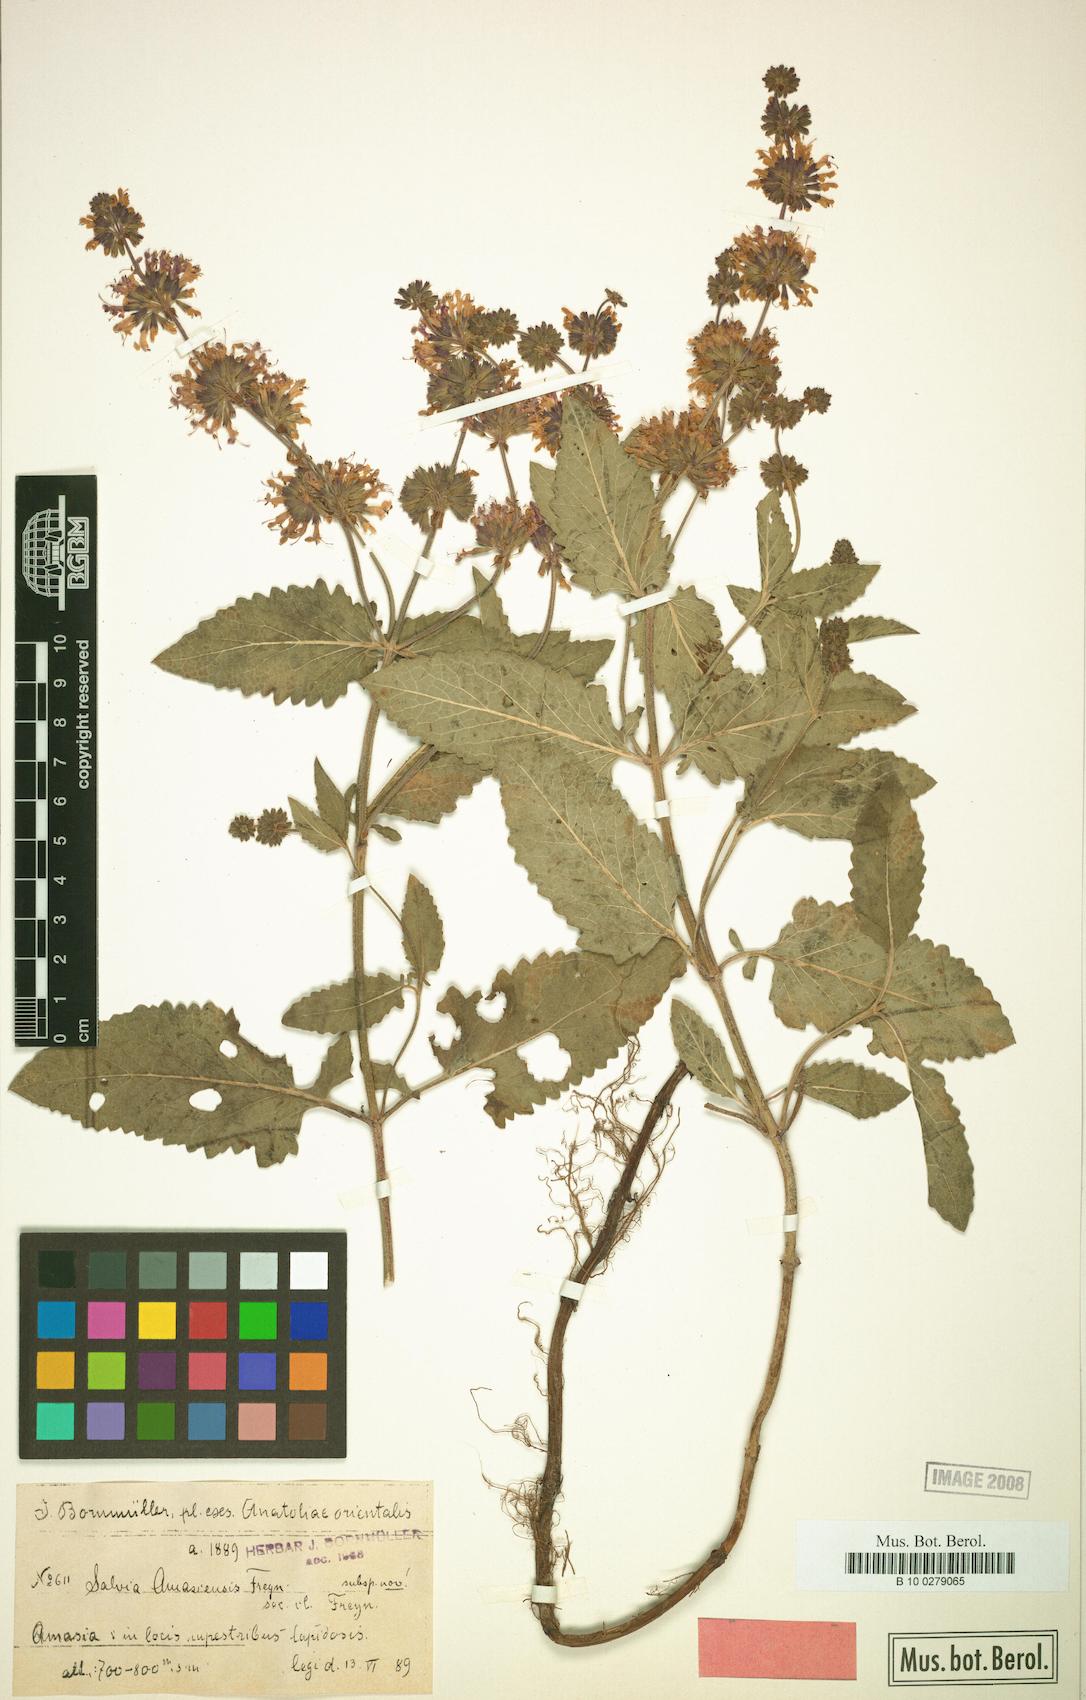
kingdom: Plantae
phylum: Tracheophyta
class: Magnoliopsida
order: Lamiales
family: Lamiaceae
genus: Salvia
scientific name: Salvia amasiana
